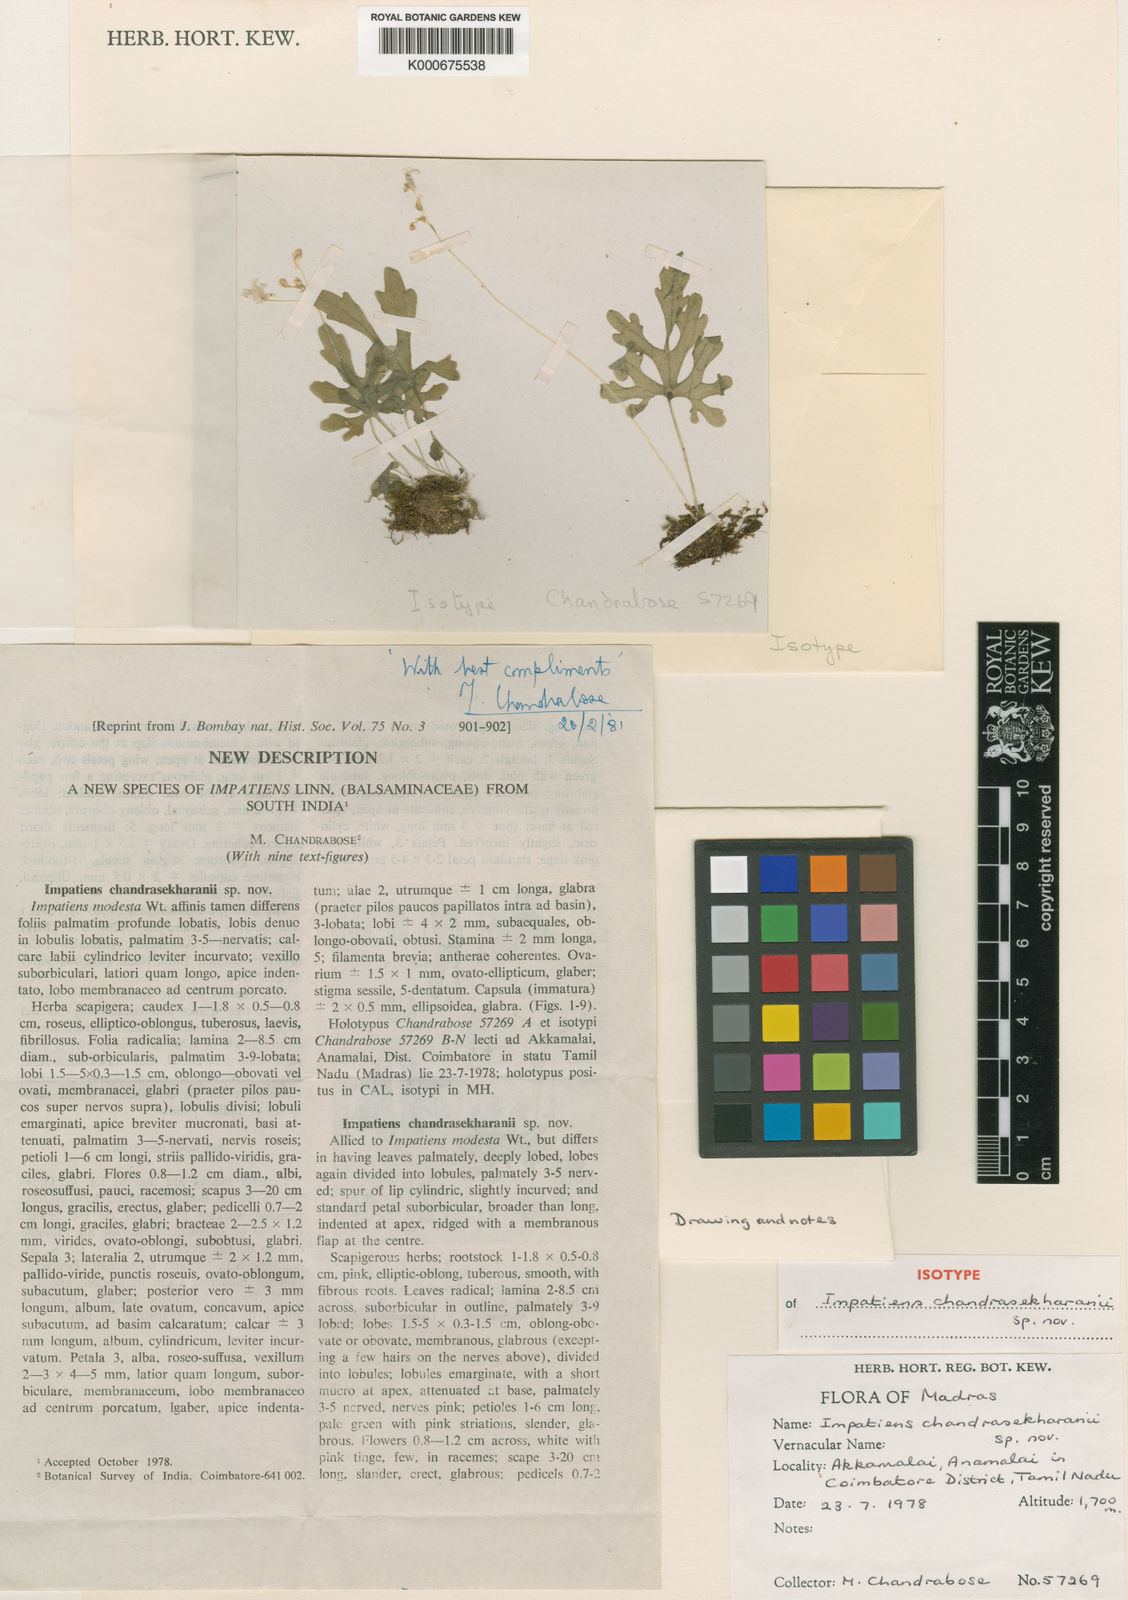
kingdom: Plantae
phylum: Tracheophyta
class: Magnoliopsida
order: Ericales
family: Balsaminaceae
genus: Impatiens
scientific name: Impatiens chandrasekharanii
